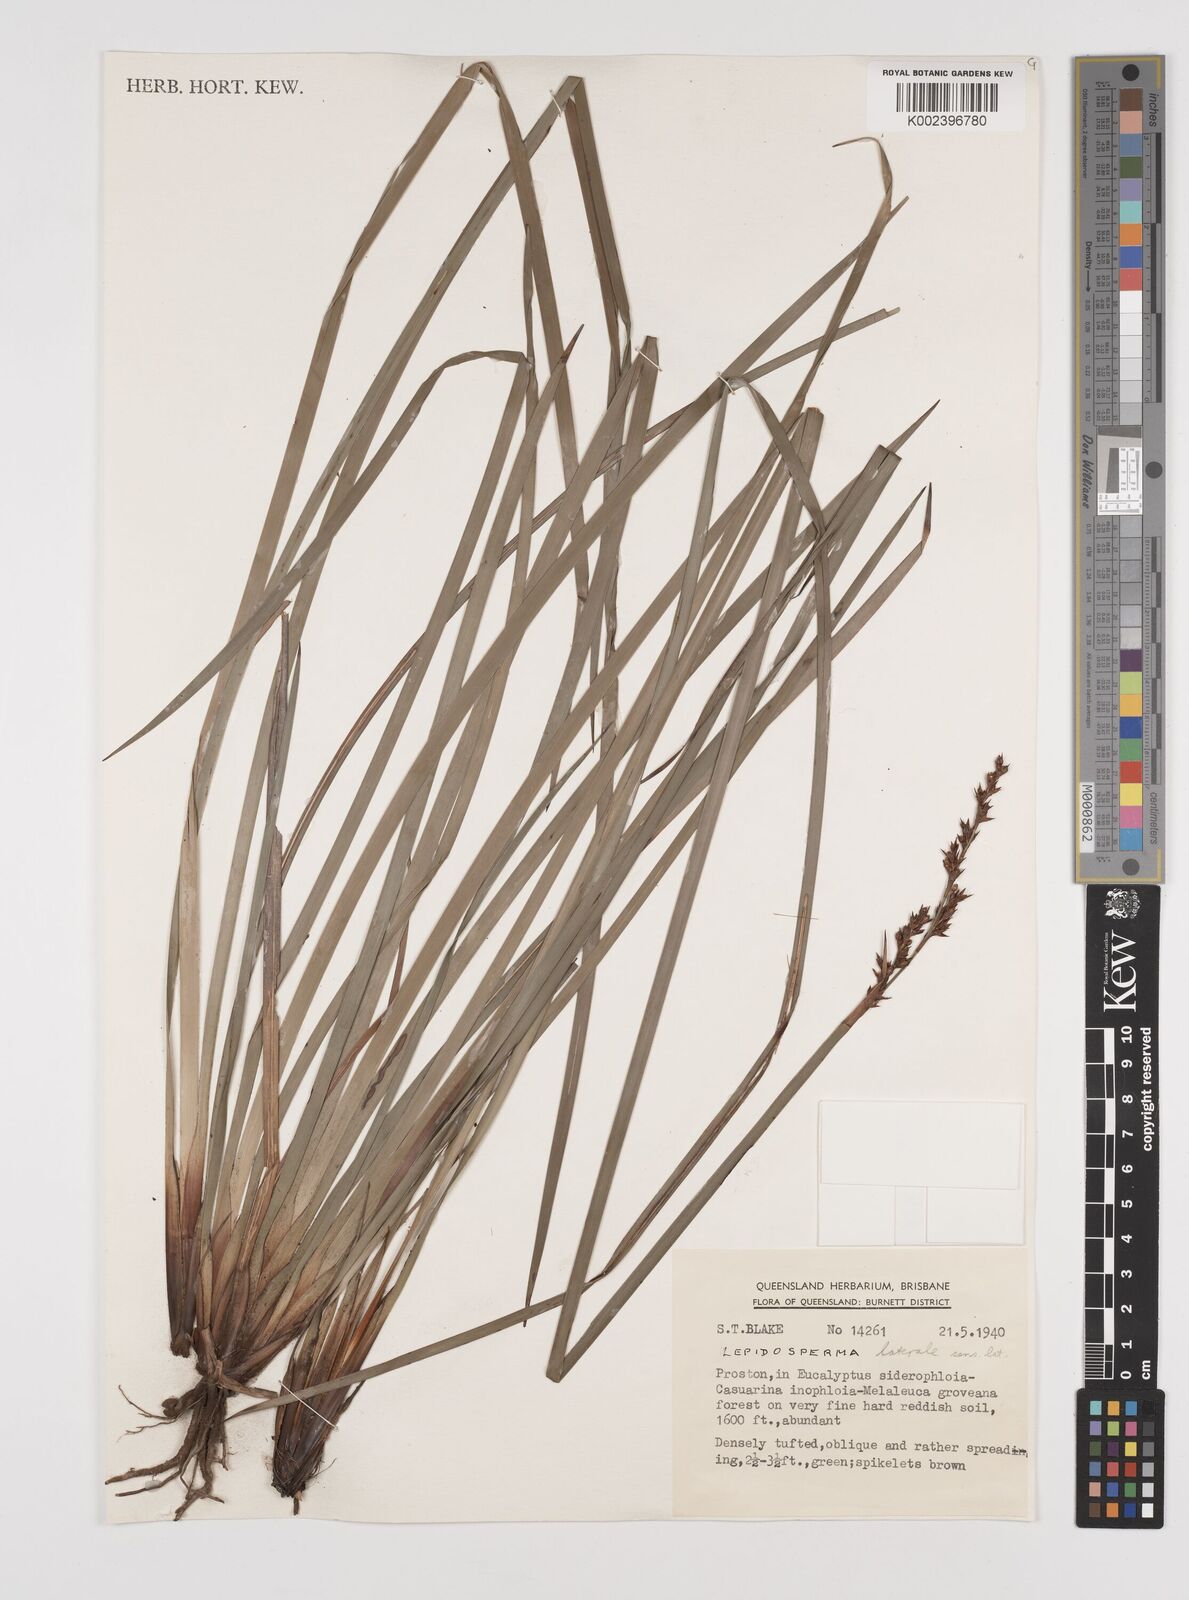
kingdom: Plantae
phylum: Tracheophyta
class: Liliopsida
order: Poales
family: Cyperaceae
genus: Lepidosperma
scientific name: Lepidosperma laterale
